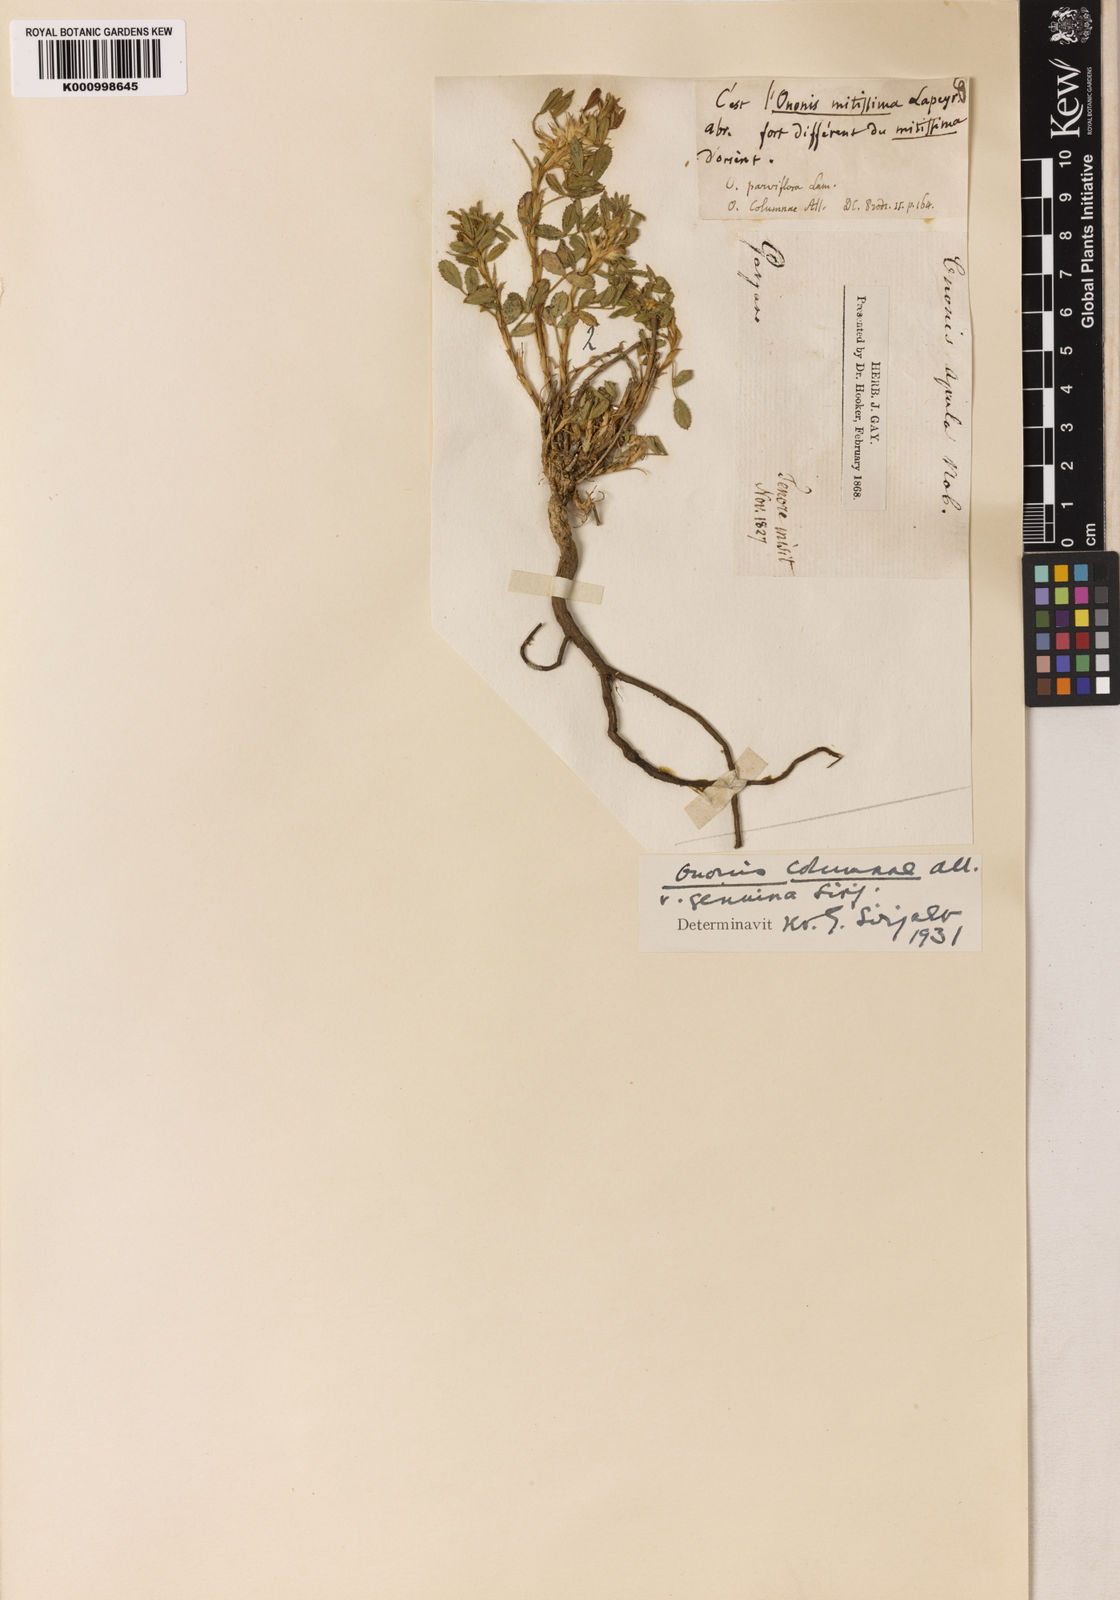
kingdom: Plantae
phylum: Tracheophyta
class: Magnoliopsida
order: Fabales
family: Fabaceae
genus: Ononis
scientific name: Ononis pusilla
